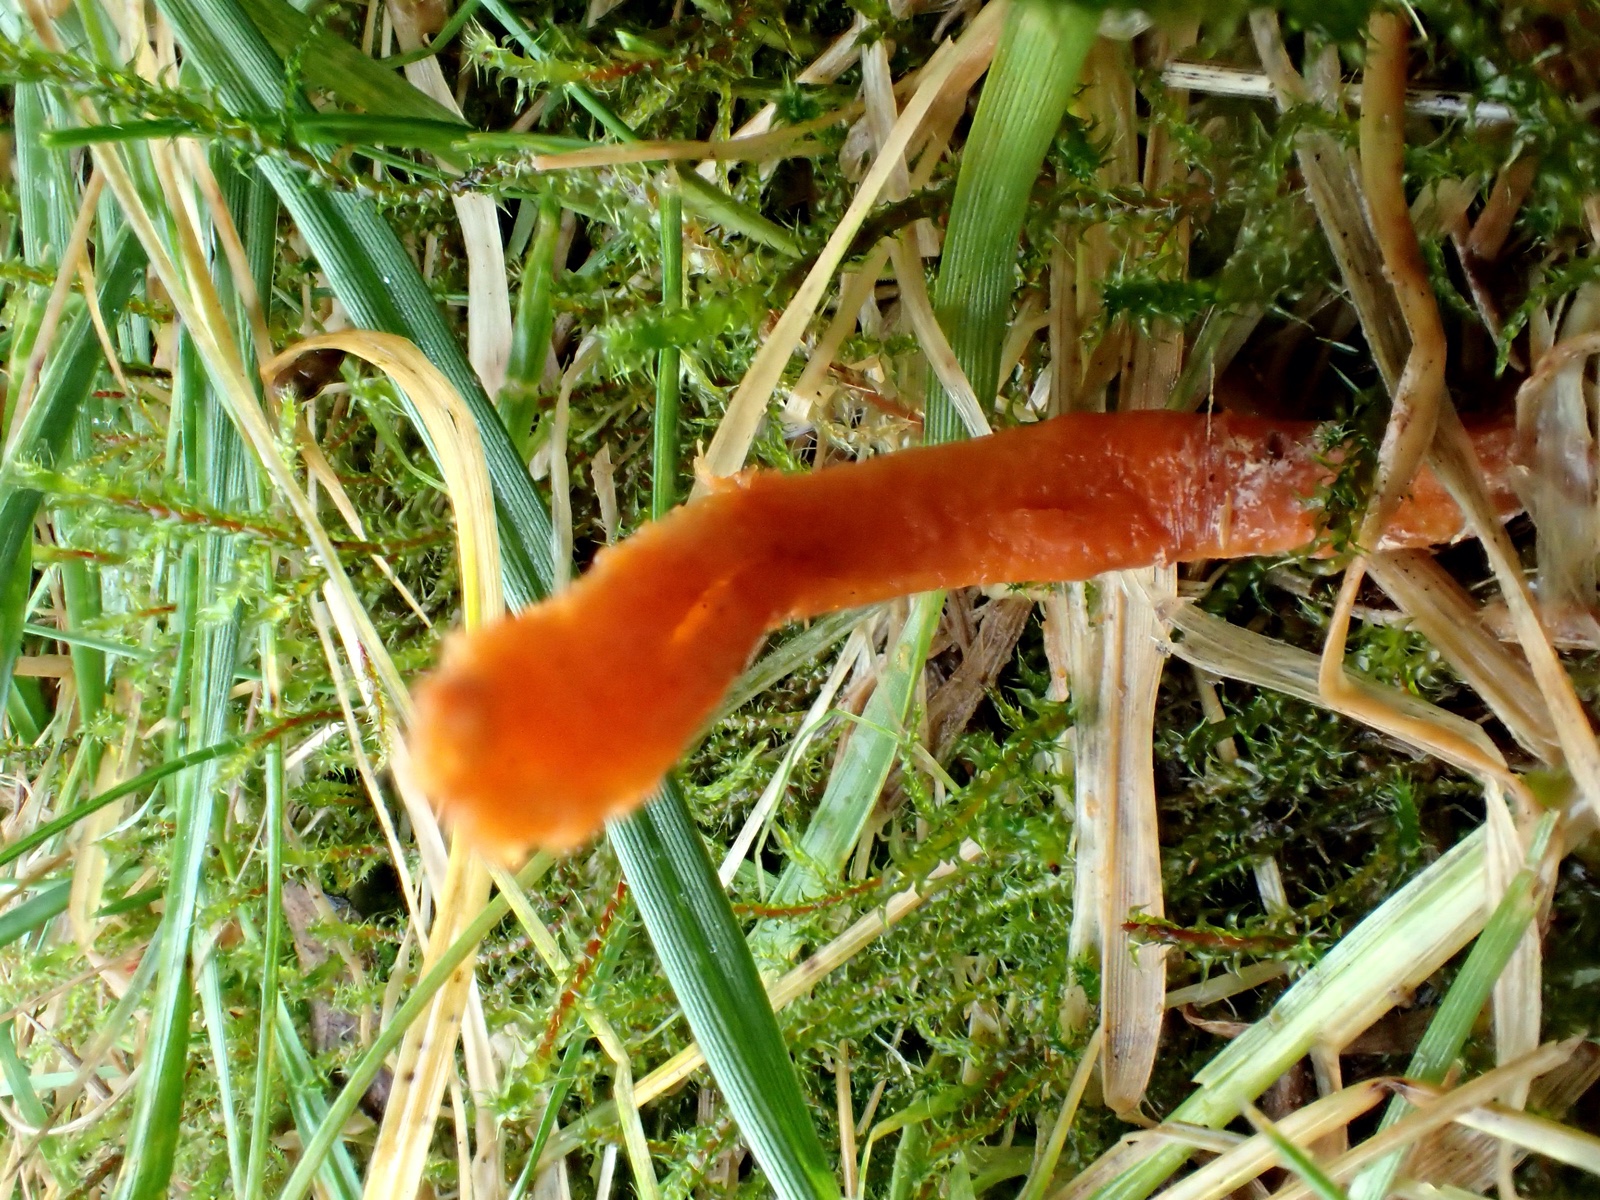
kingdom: Fungi
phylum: Ascomycota
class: Sordariomycetes
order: Hypocreales
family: Cordycipitaceae
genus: Cordyceps
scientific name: Cordyceps militaris
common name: puppe-snyltekølle
